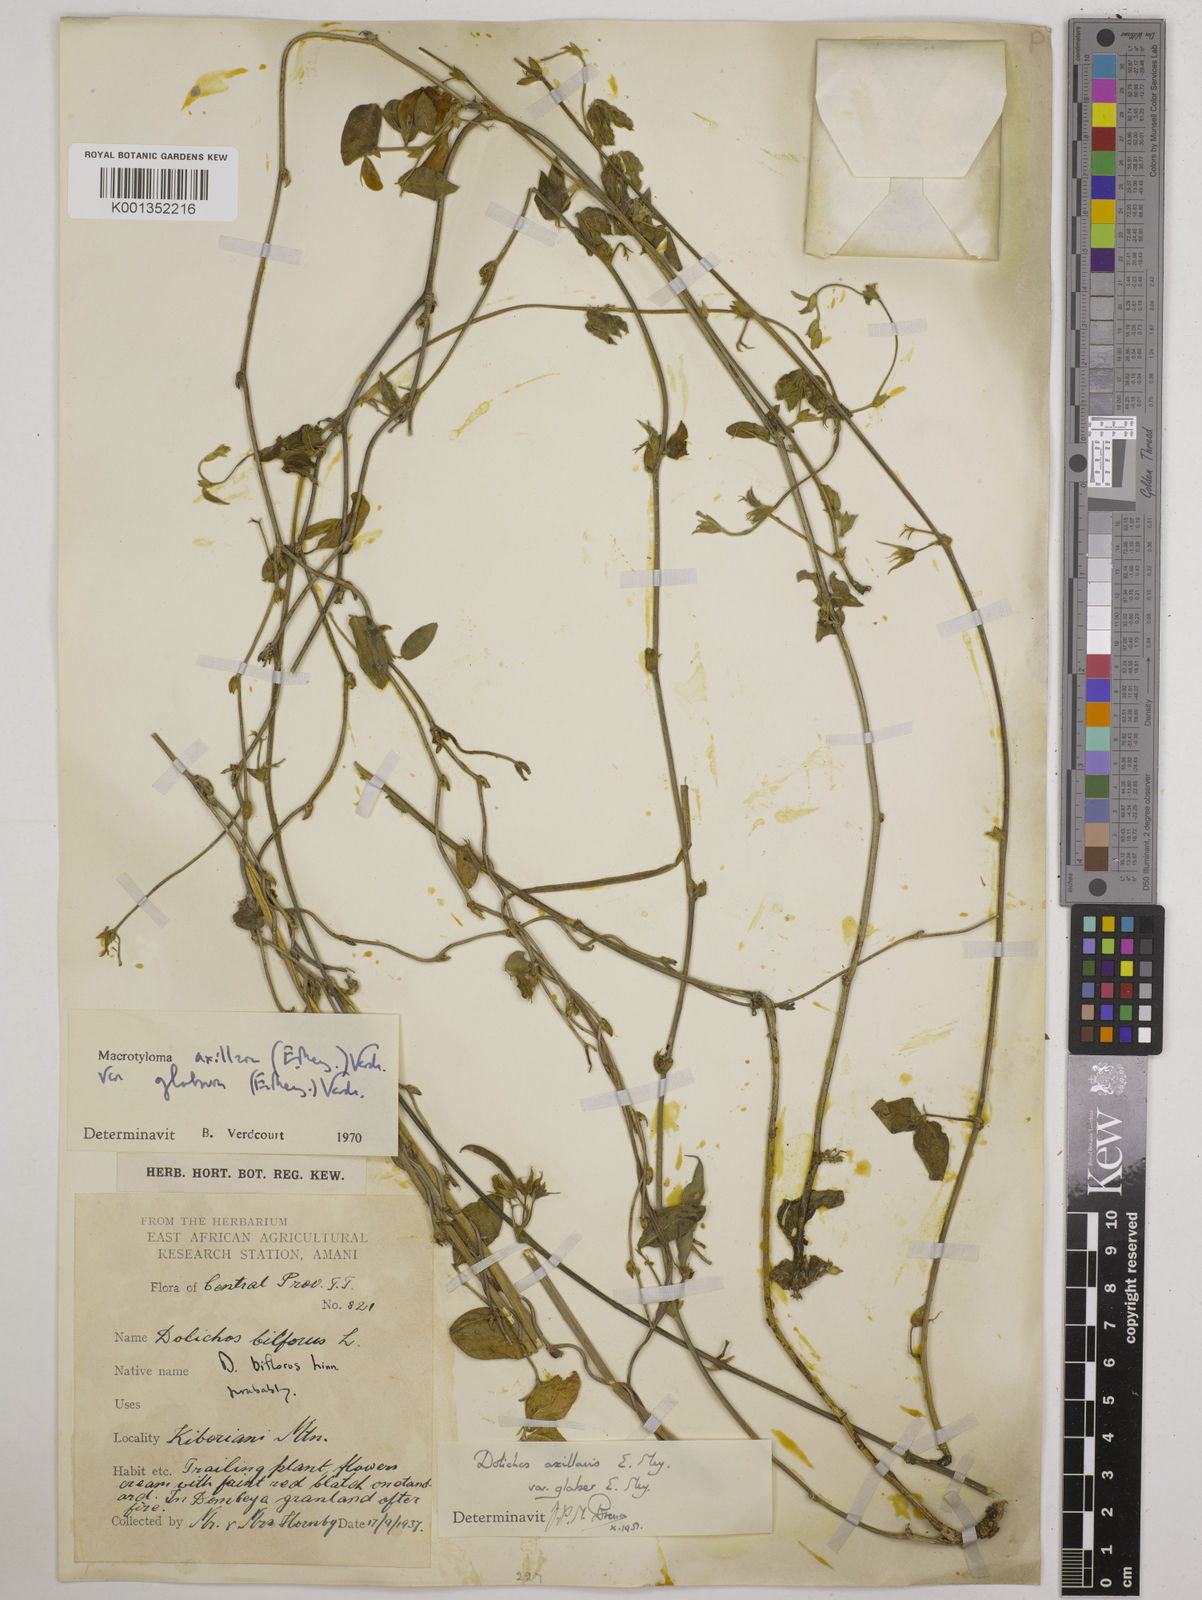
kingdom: Plantae
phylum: Tracheophyta
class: Magnoliopsida
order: Fabales
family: Fabaceae
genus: Macrotyloma
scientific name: Macrotyloma
